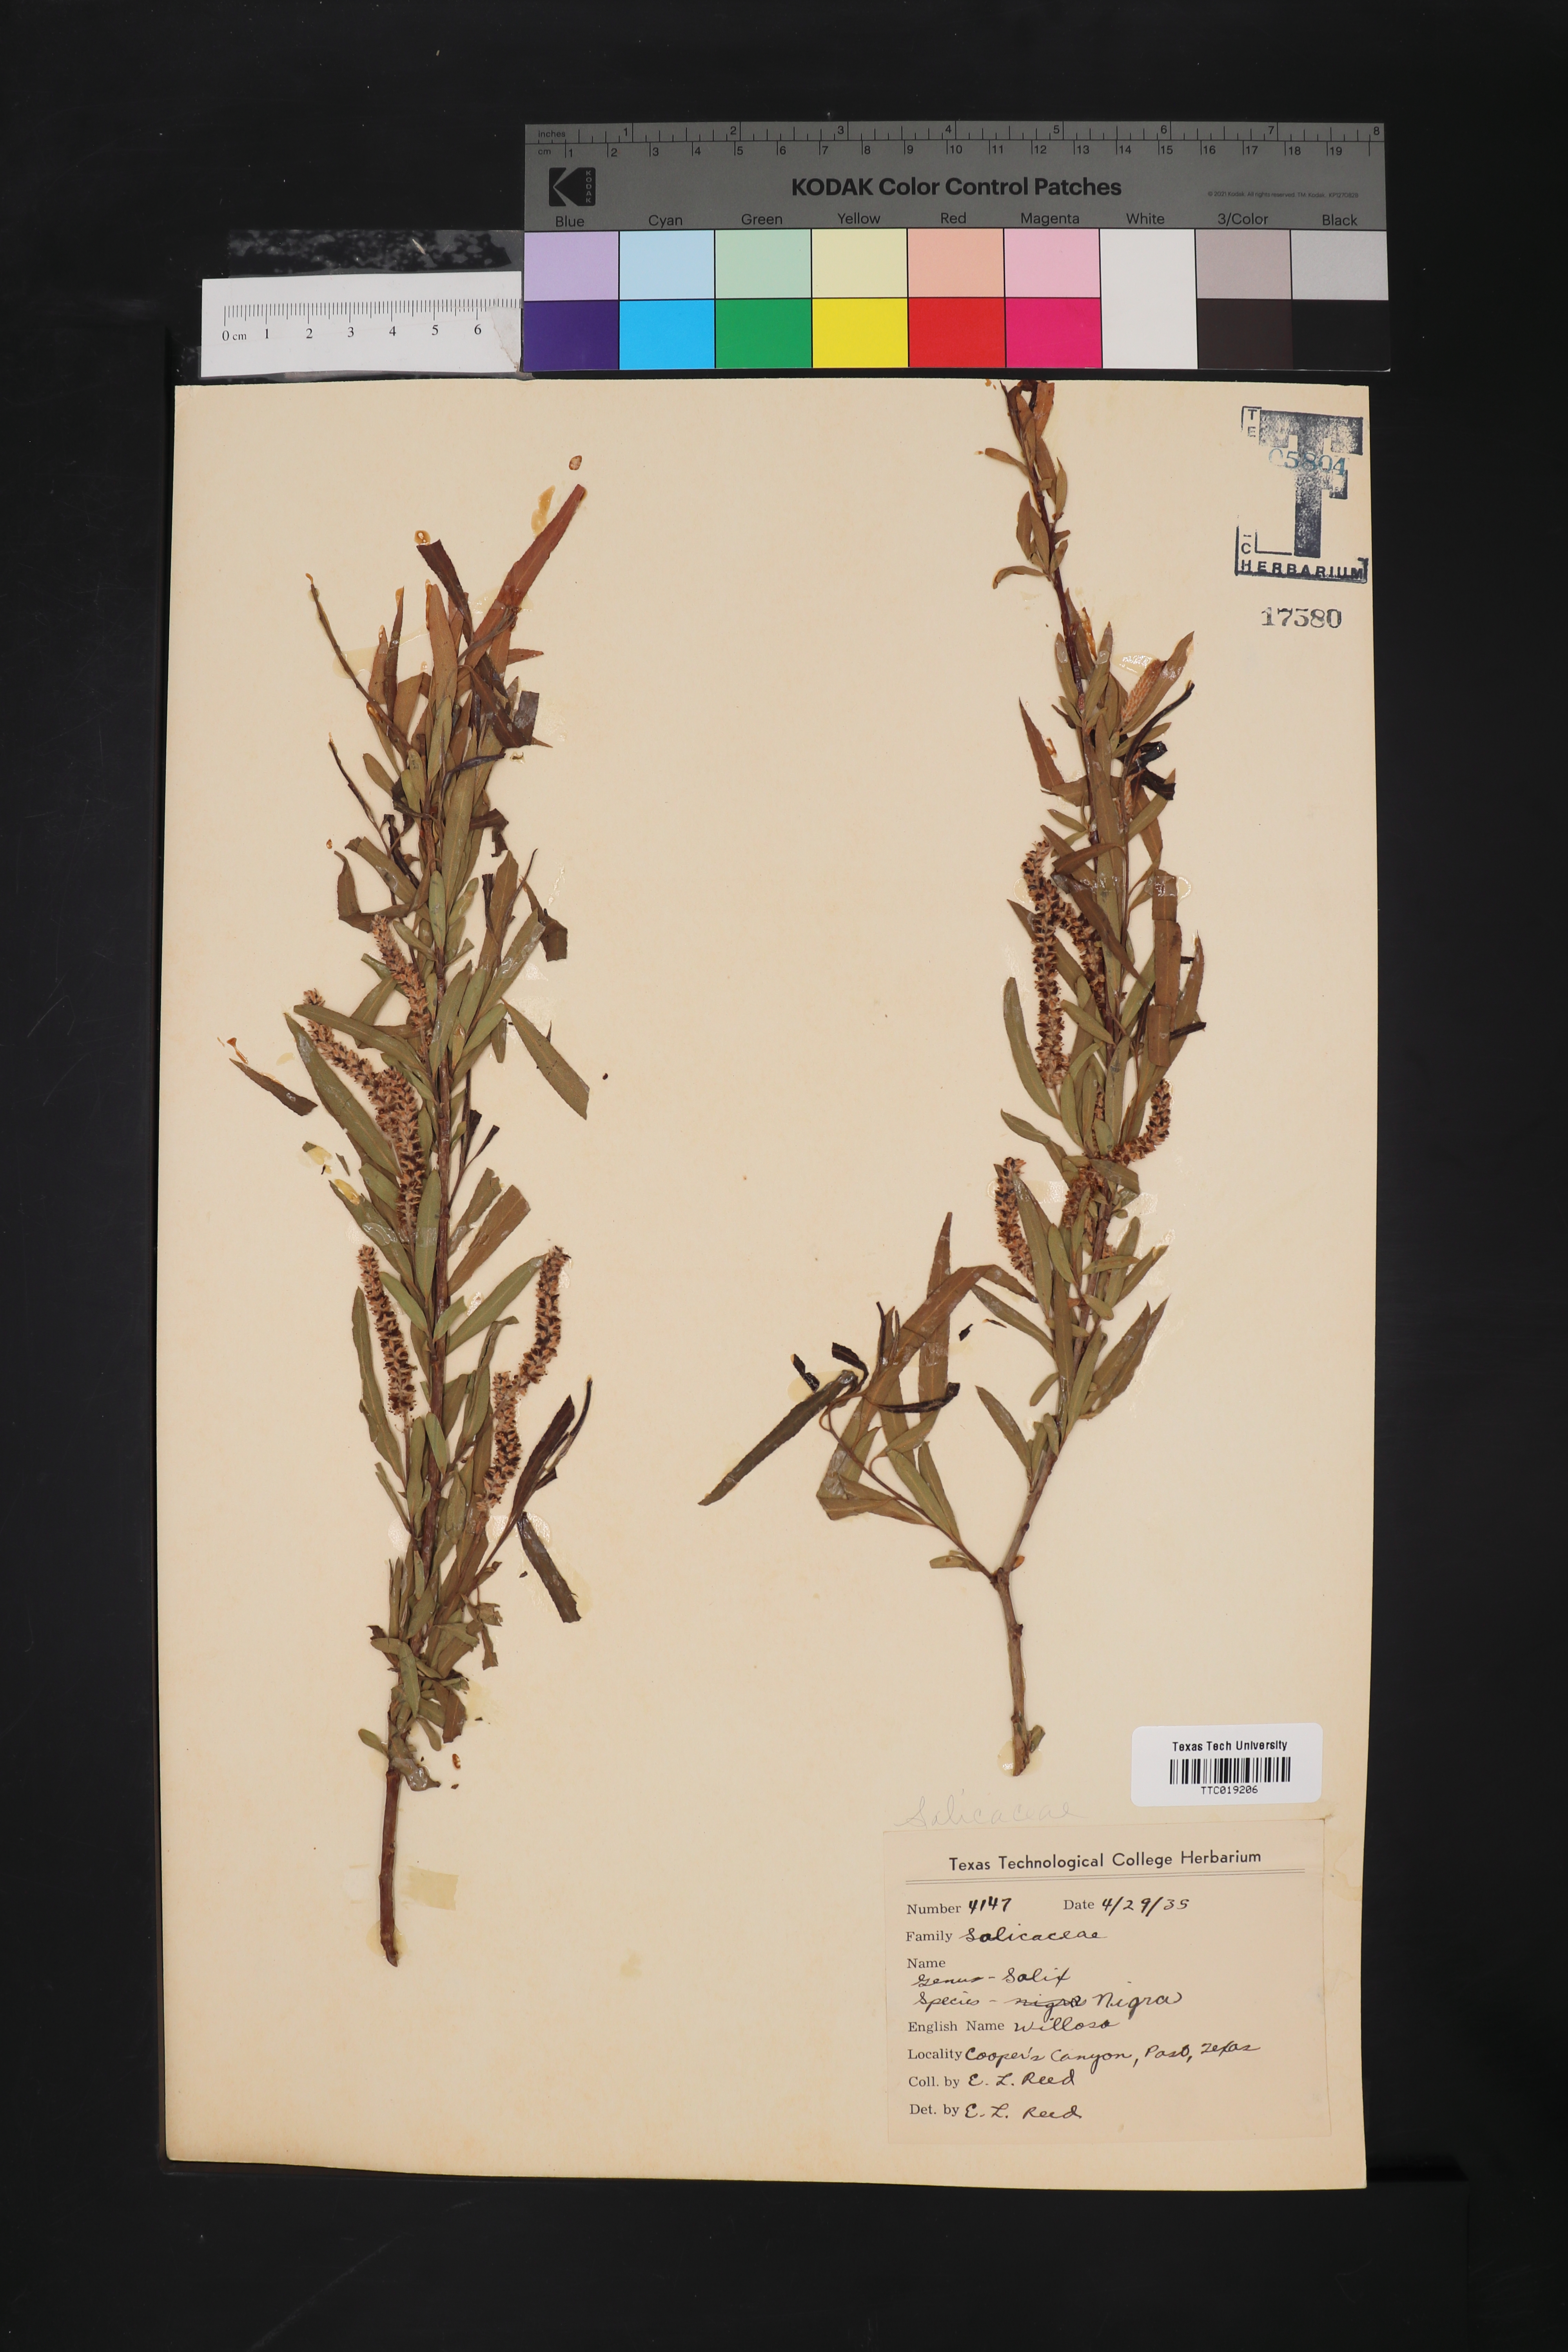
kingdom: Plantae
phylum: Tracheophyta
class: Magnoliopsida
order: Malpighiales
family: Salicaceae
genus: Salix
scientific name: Salix nigra
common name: Black willow
